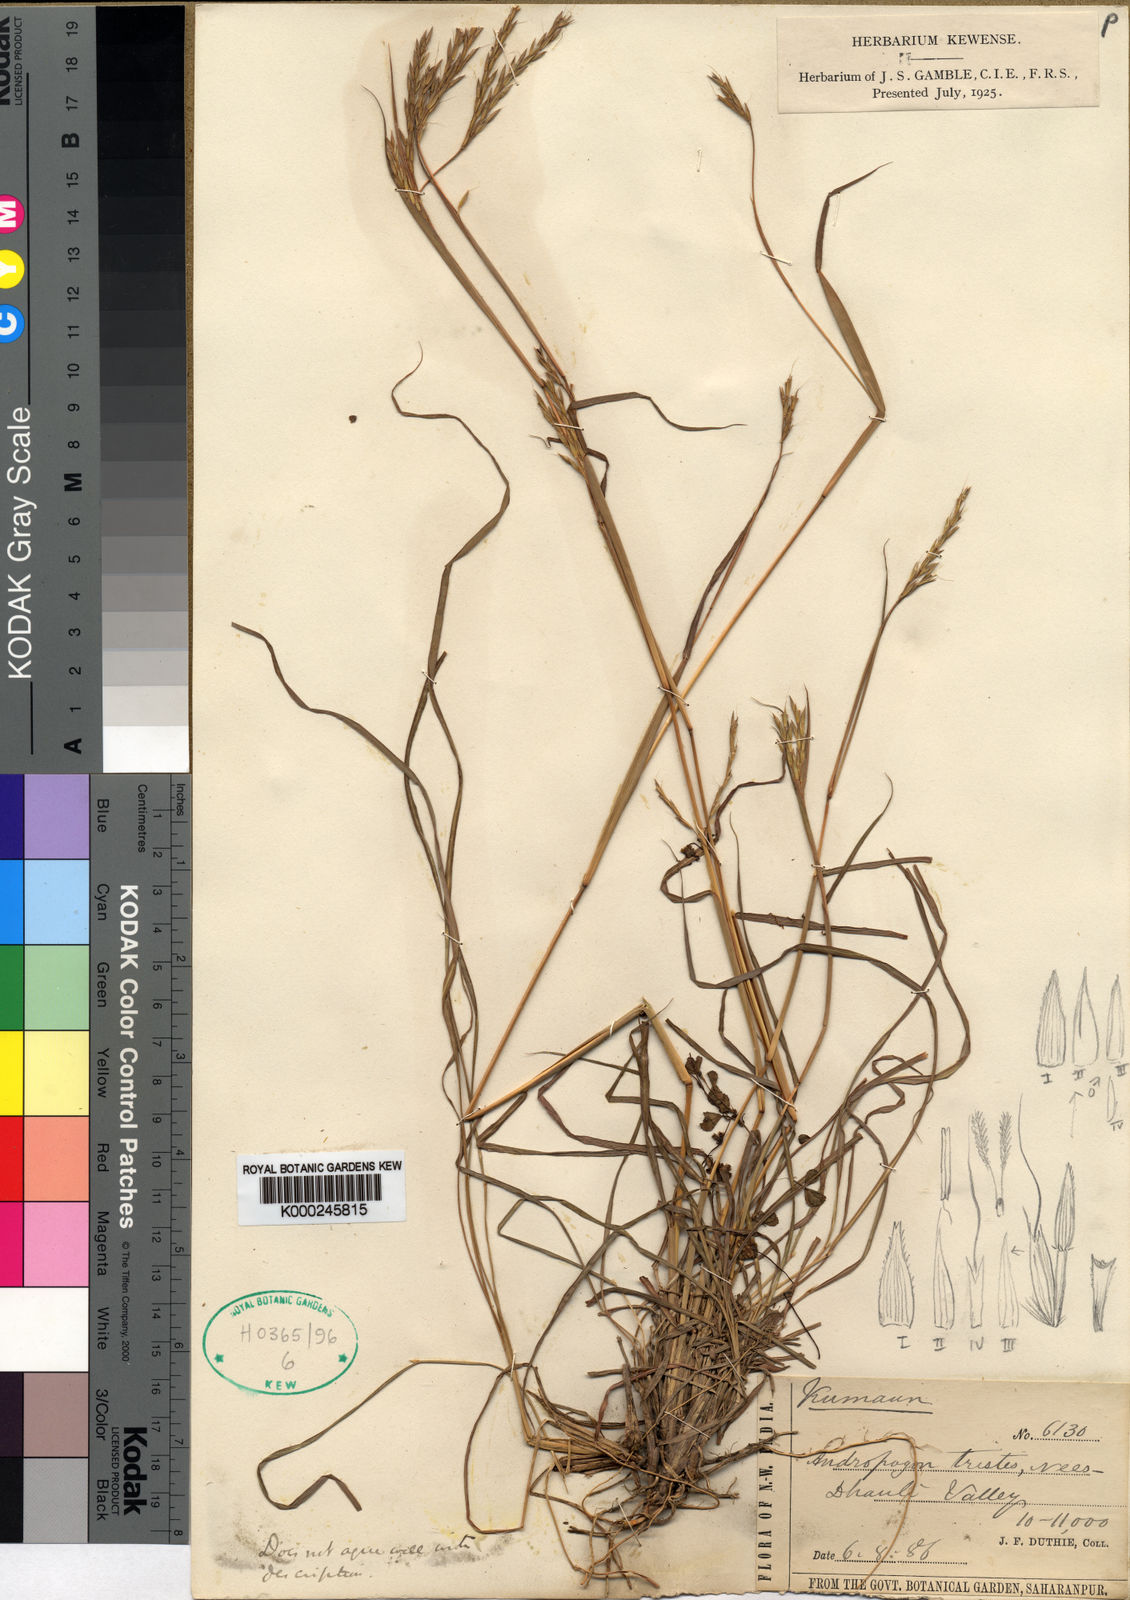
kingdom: Plantae
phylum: Tracheophyta
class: Liliopsida
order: Poales
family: Poaceae
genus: Andropogon
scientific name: Andropogon munroi
